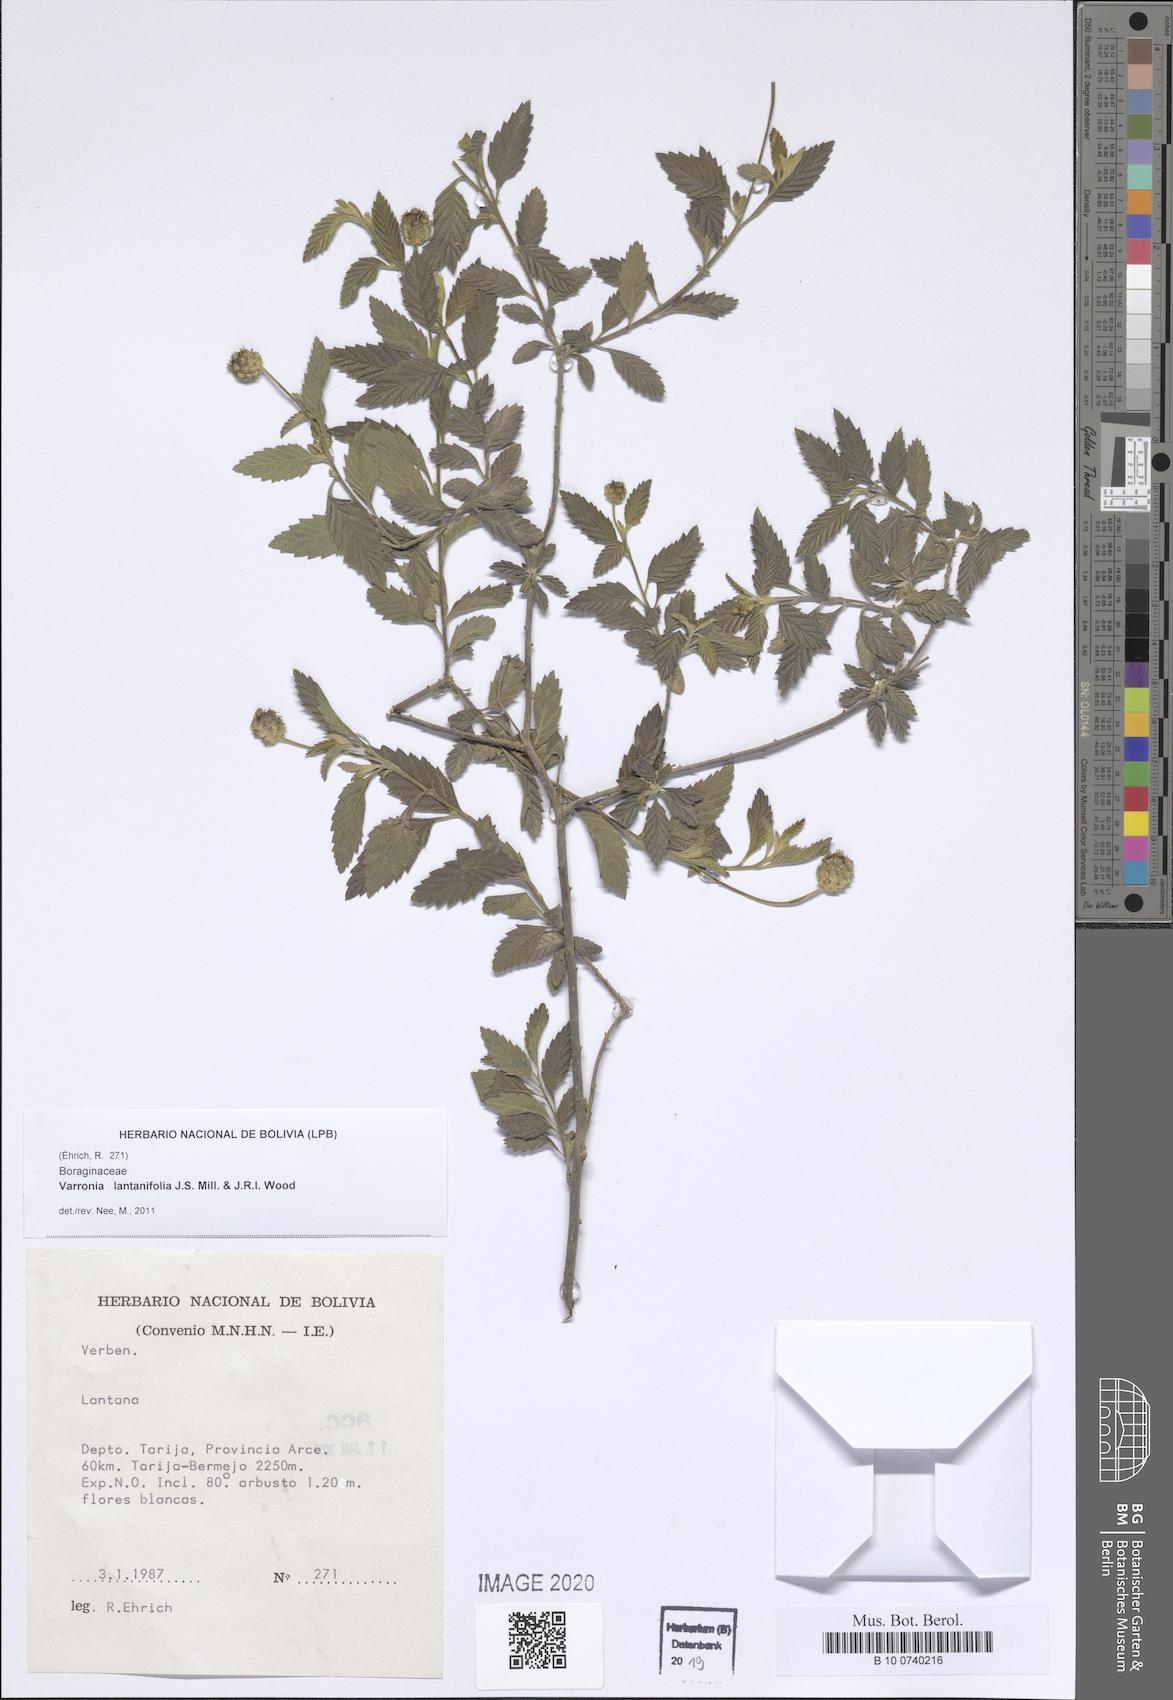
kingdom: Plantae
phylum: Tracheophyta
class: Magnoliopsida
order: Boraginales
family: Cordiaceae
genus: Varronia
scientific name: Varronia lantanifolia
